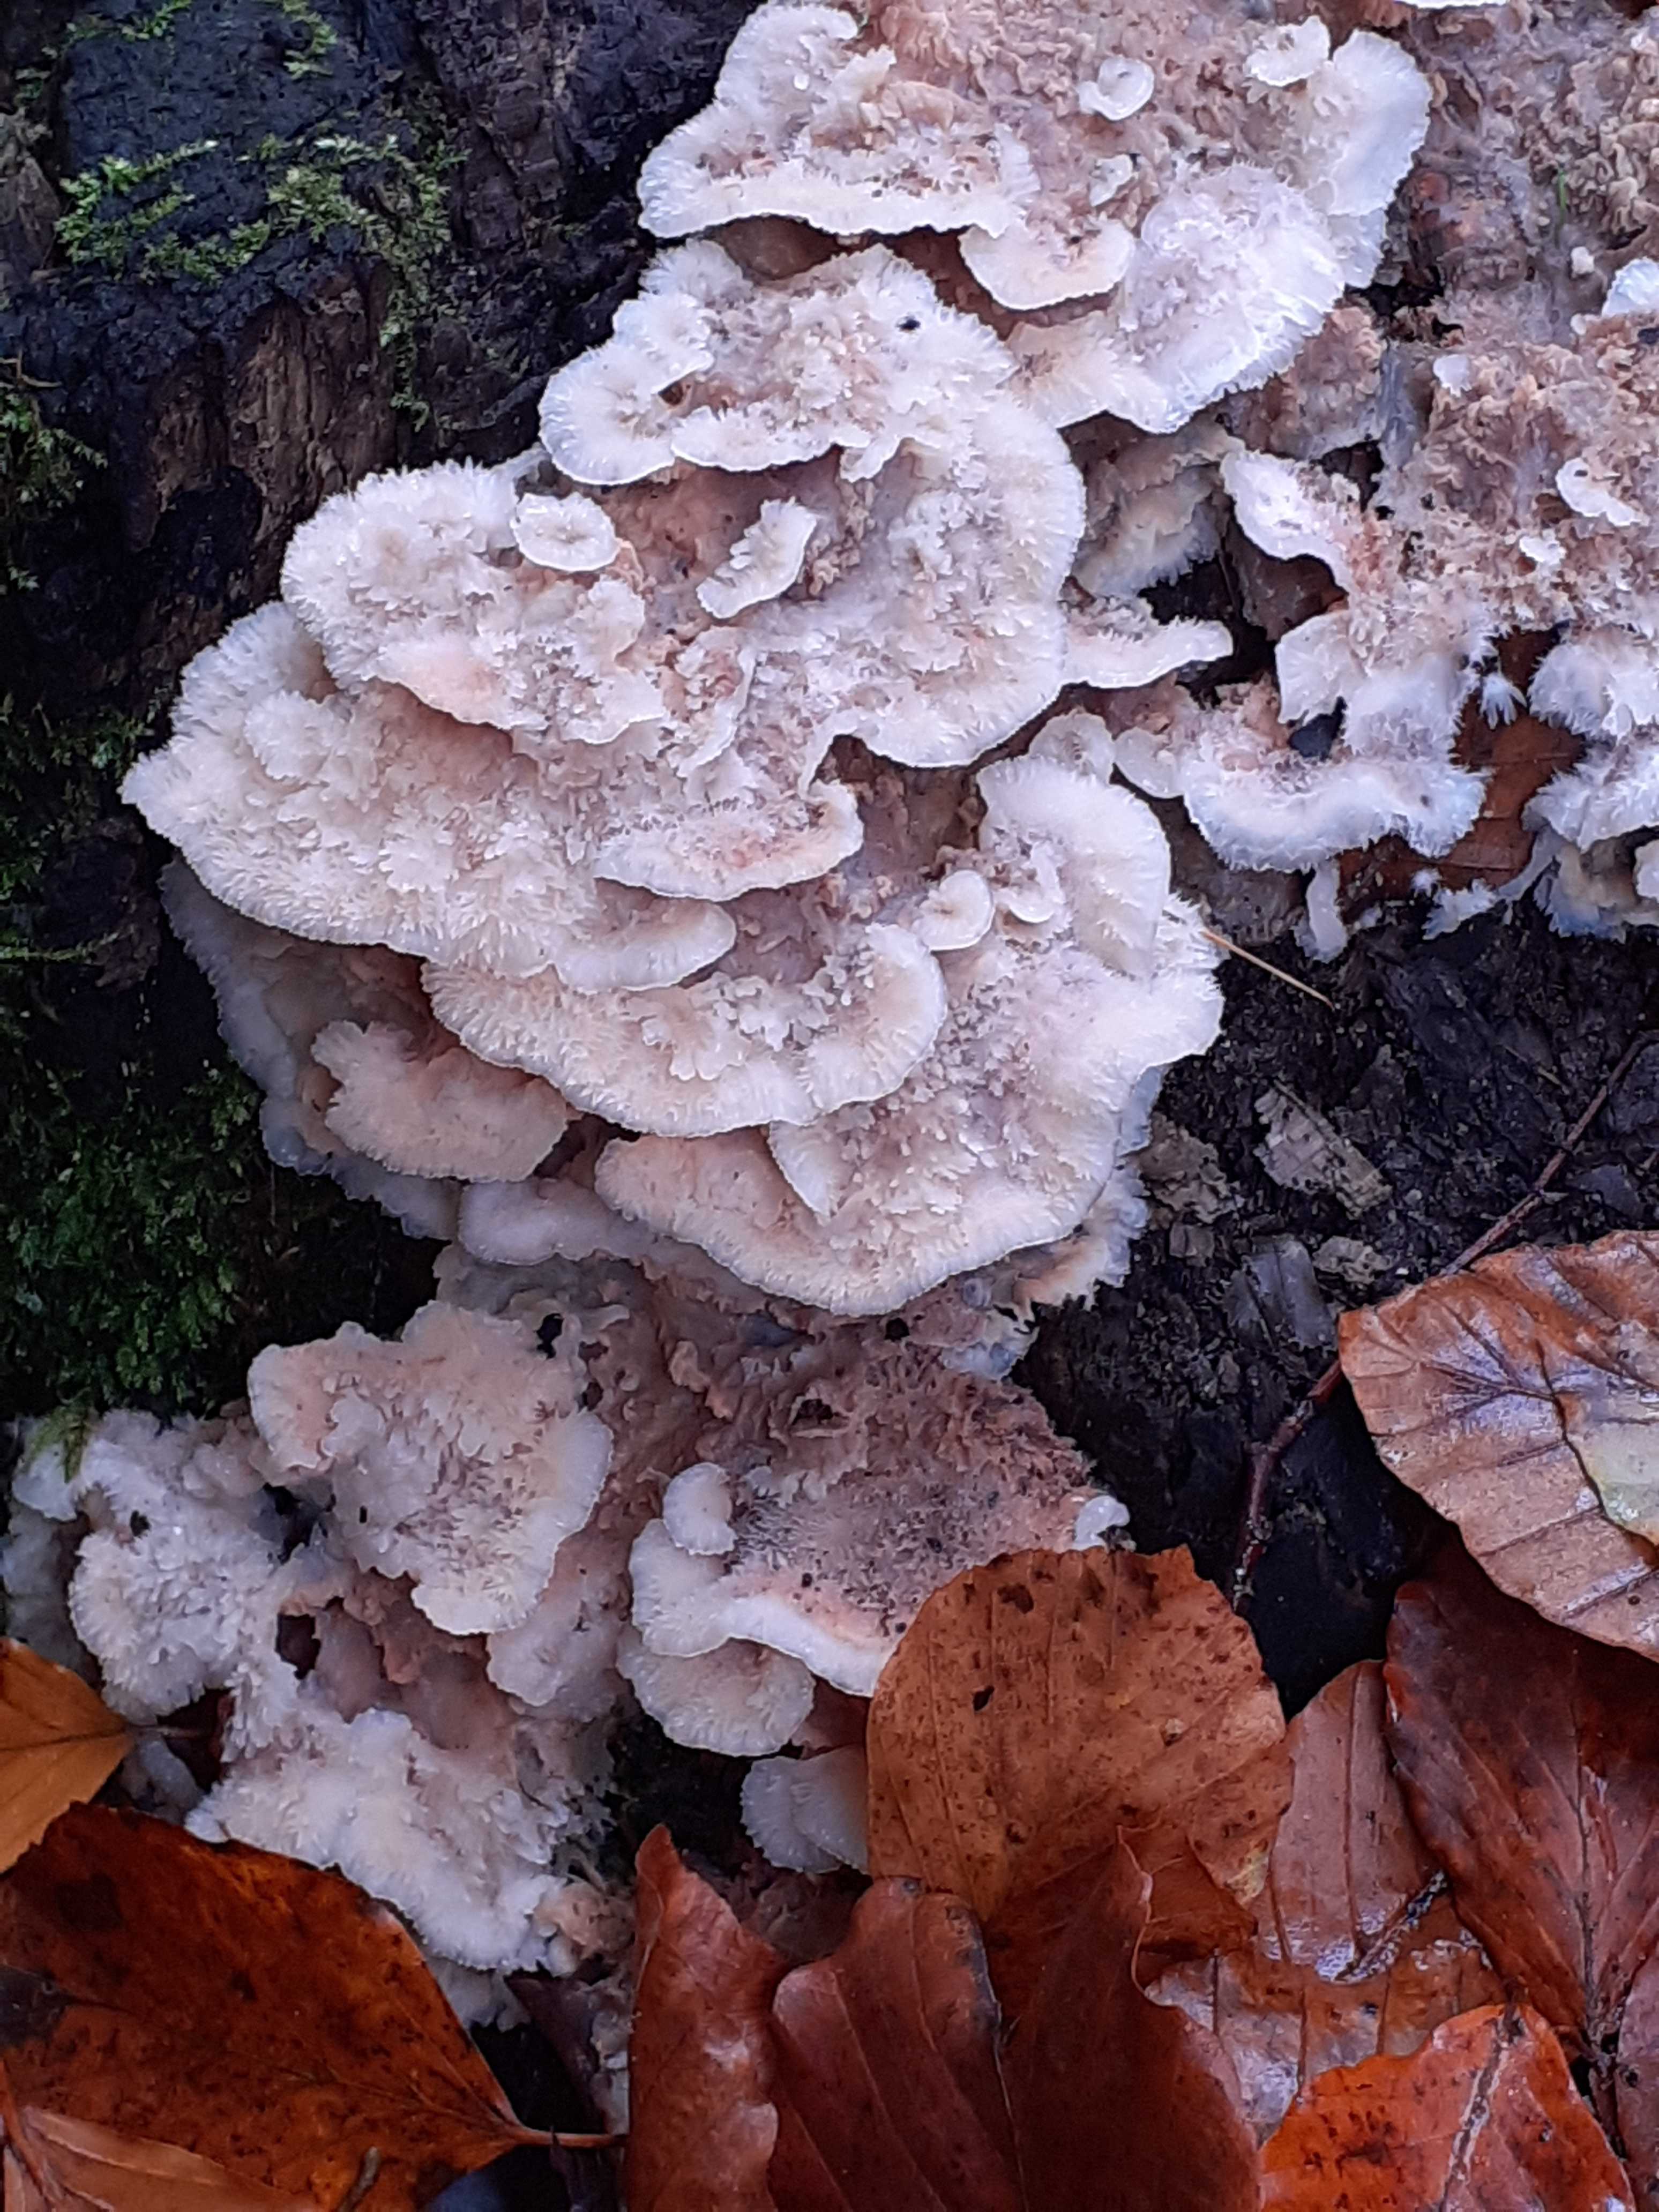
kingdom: Fungi
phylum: Basidiomycota
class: Agaricomycetes
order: Polyporales
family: Meruliaceae
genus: Phlebia
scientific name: Phlebia tremellosa
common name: bævrende åresvamp
